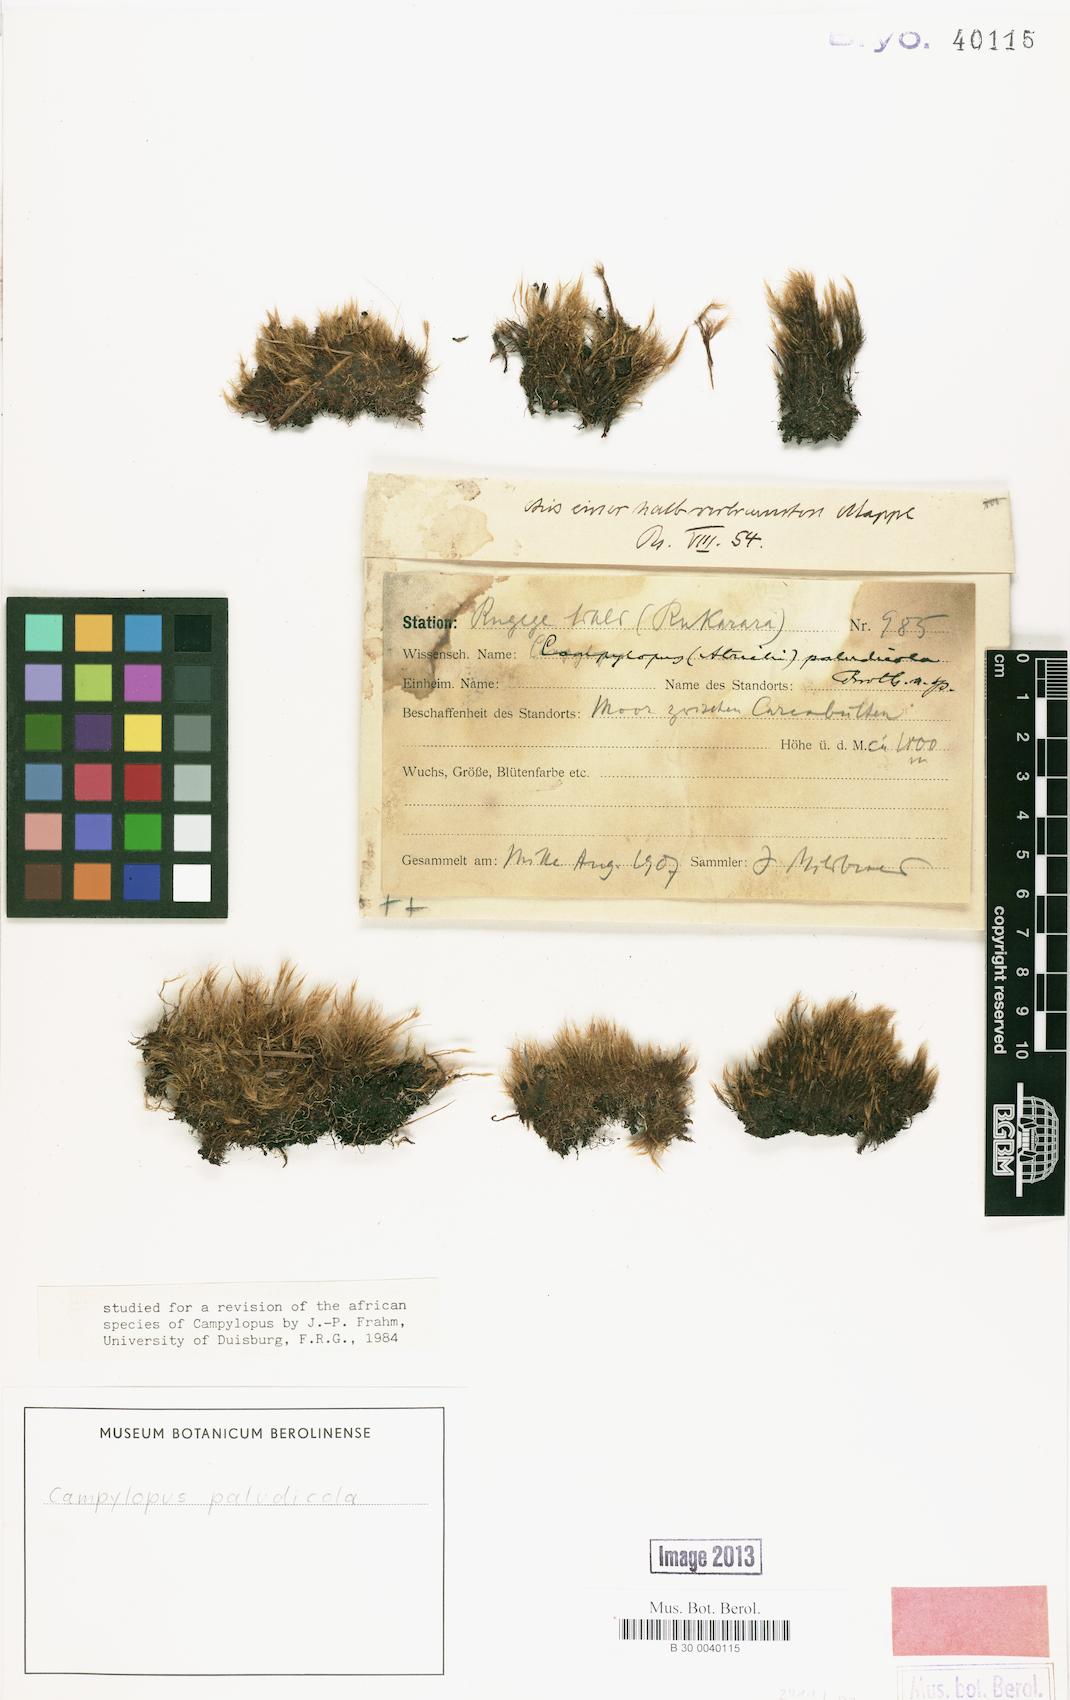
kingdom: Plantae
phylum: Bryophyta
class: Bryopsida
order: Dicranales
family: Leucobryaceae
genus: Campylopus
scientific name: Campylopus pyriformis
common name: Dwarf swan-neck moss
